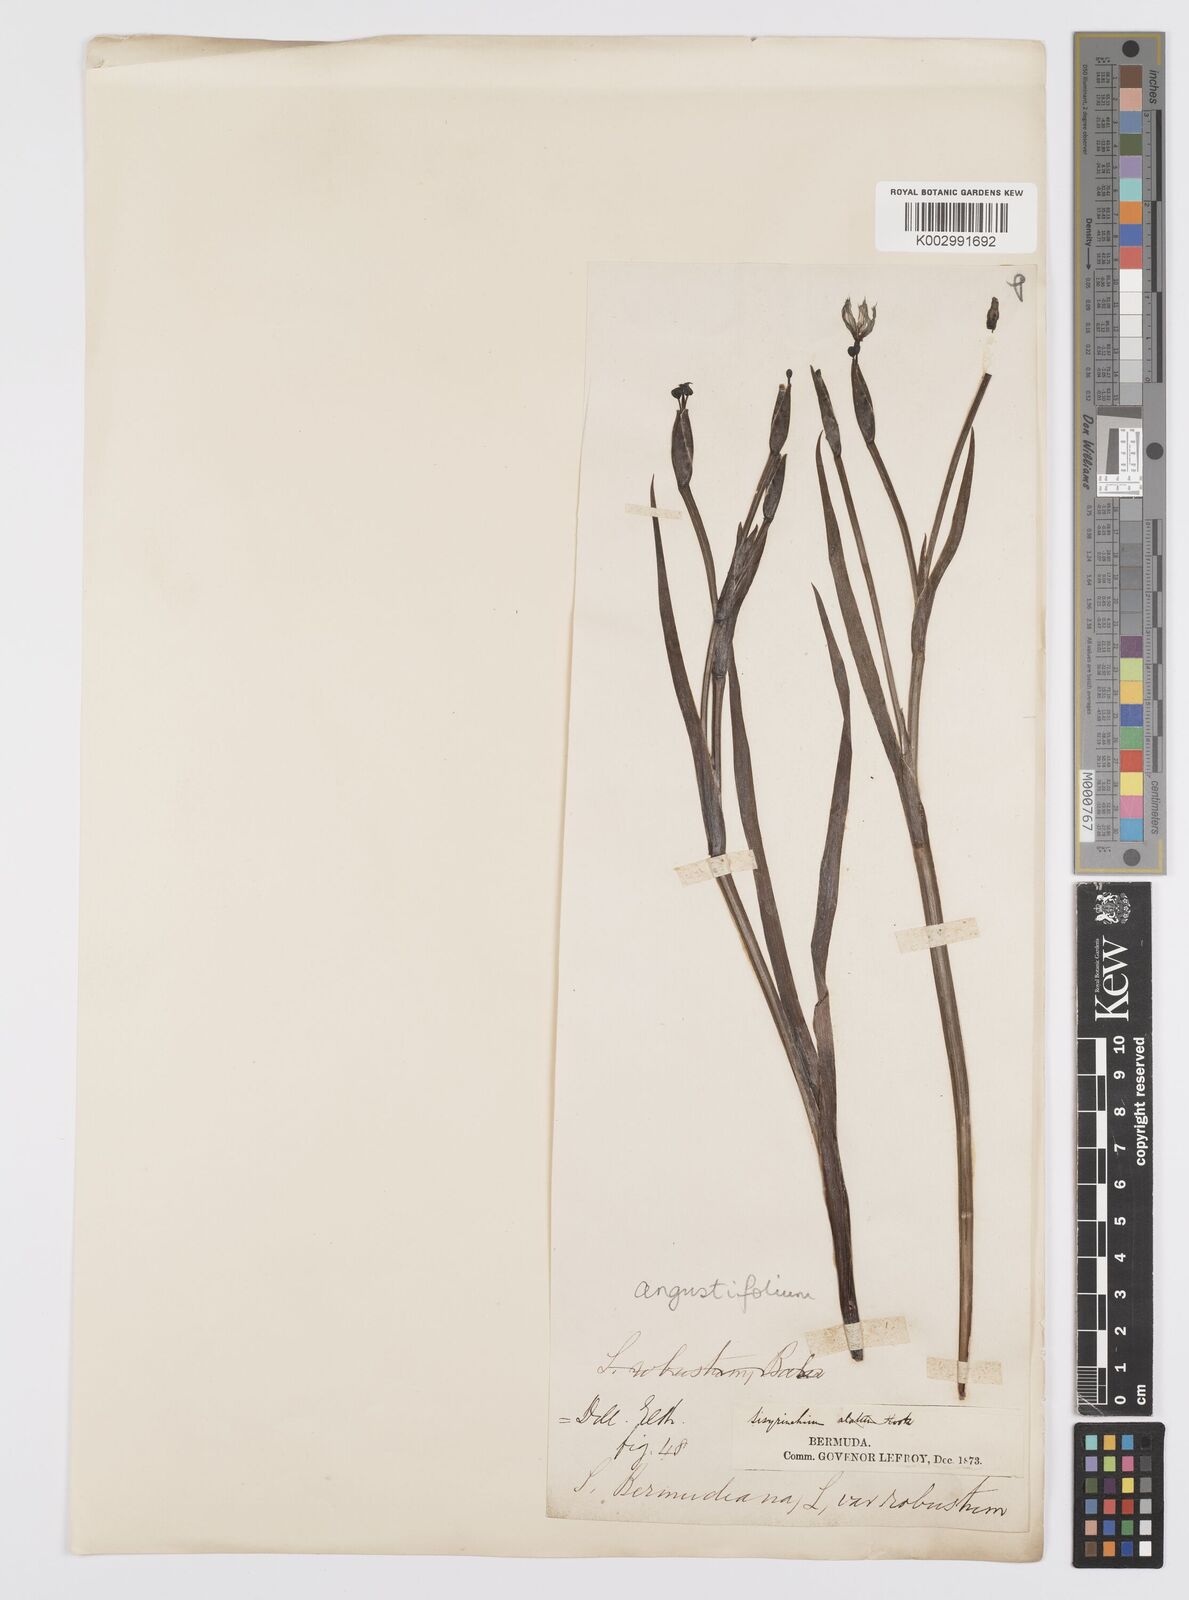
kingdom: Plantae
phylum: Tracheophyta
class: Liliopsida
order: Asparagales
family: Iridaceae
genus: Sisyrinchium
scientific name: Sisyrinchium
